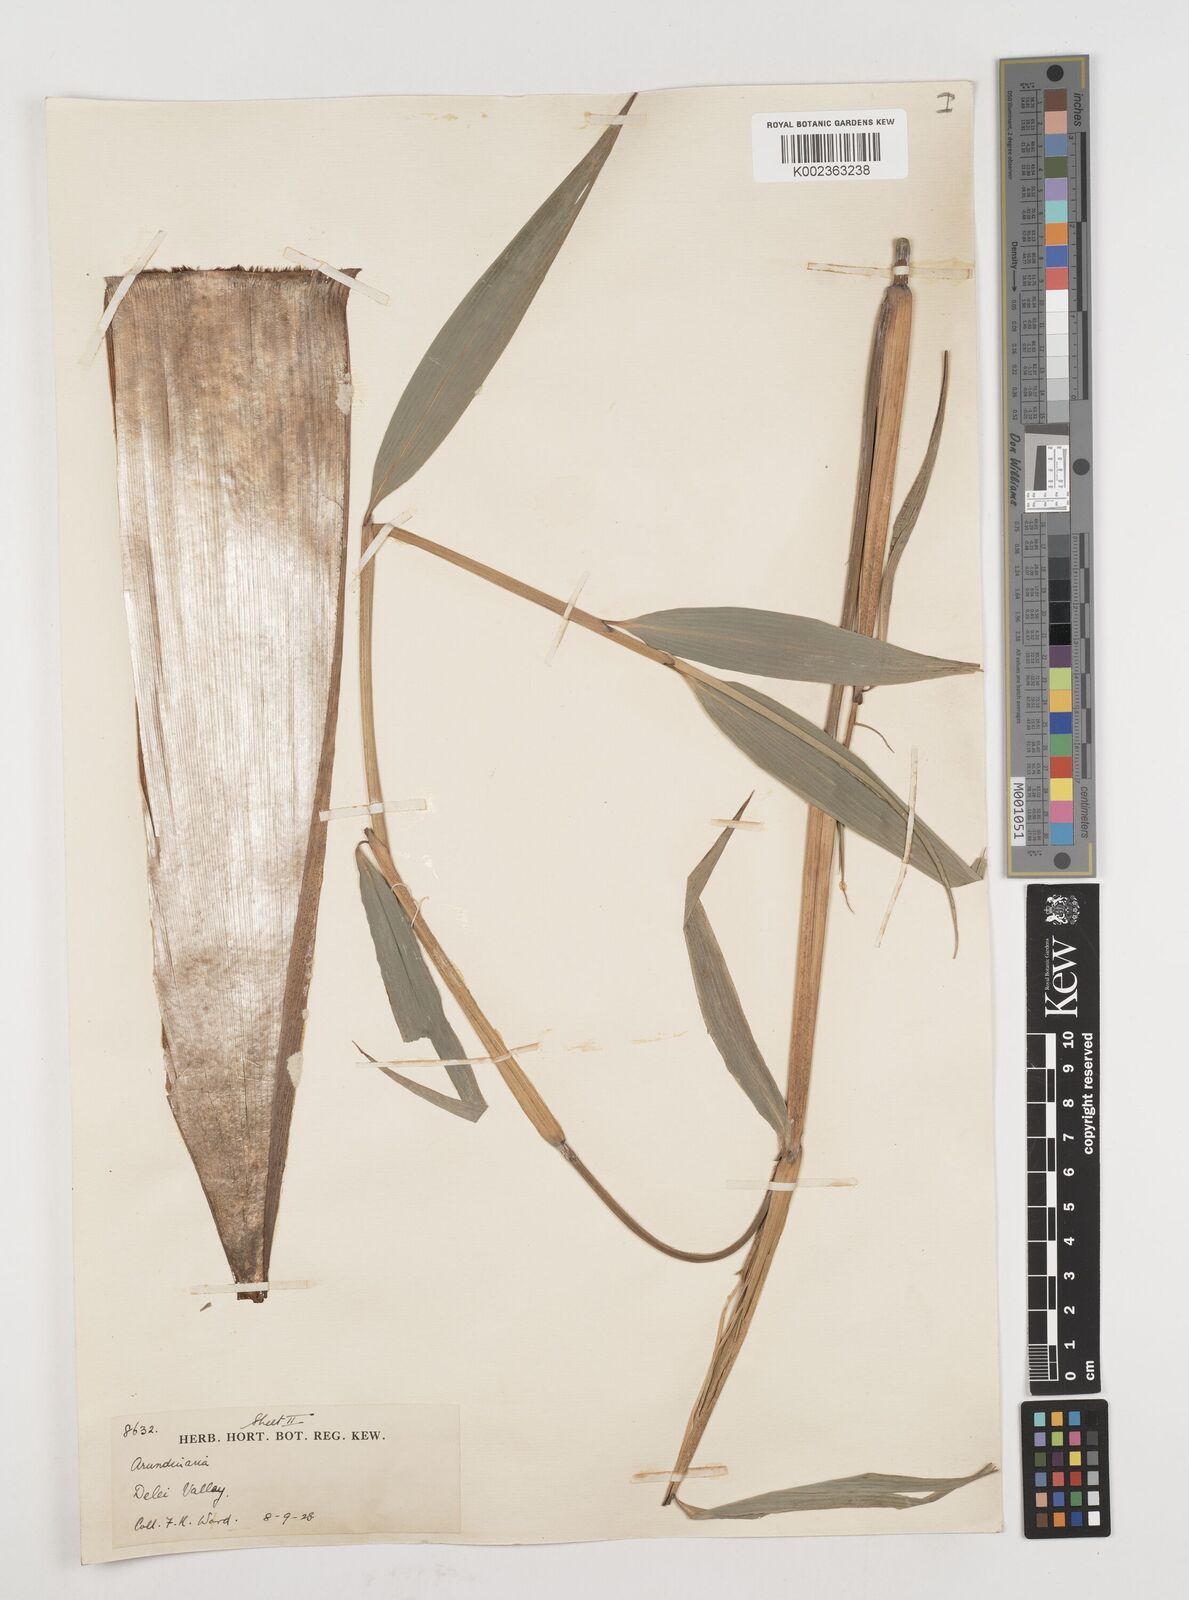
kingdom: Plantae
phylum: Tracheophyta
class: Liliopsida
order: Poales
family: Poaceae
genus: Fargesia
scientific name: Fargesia
